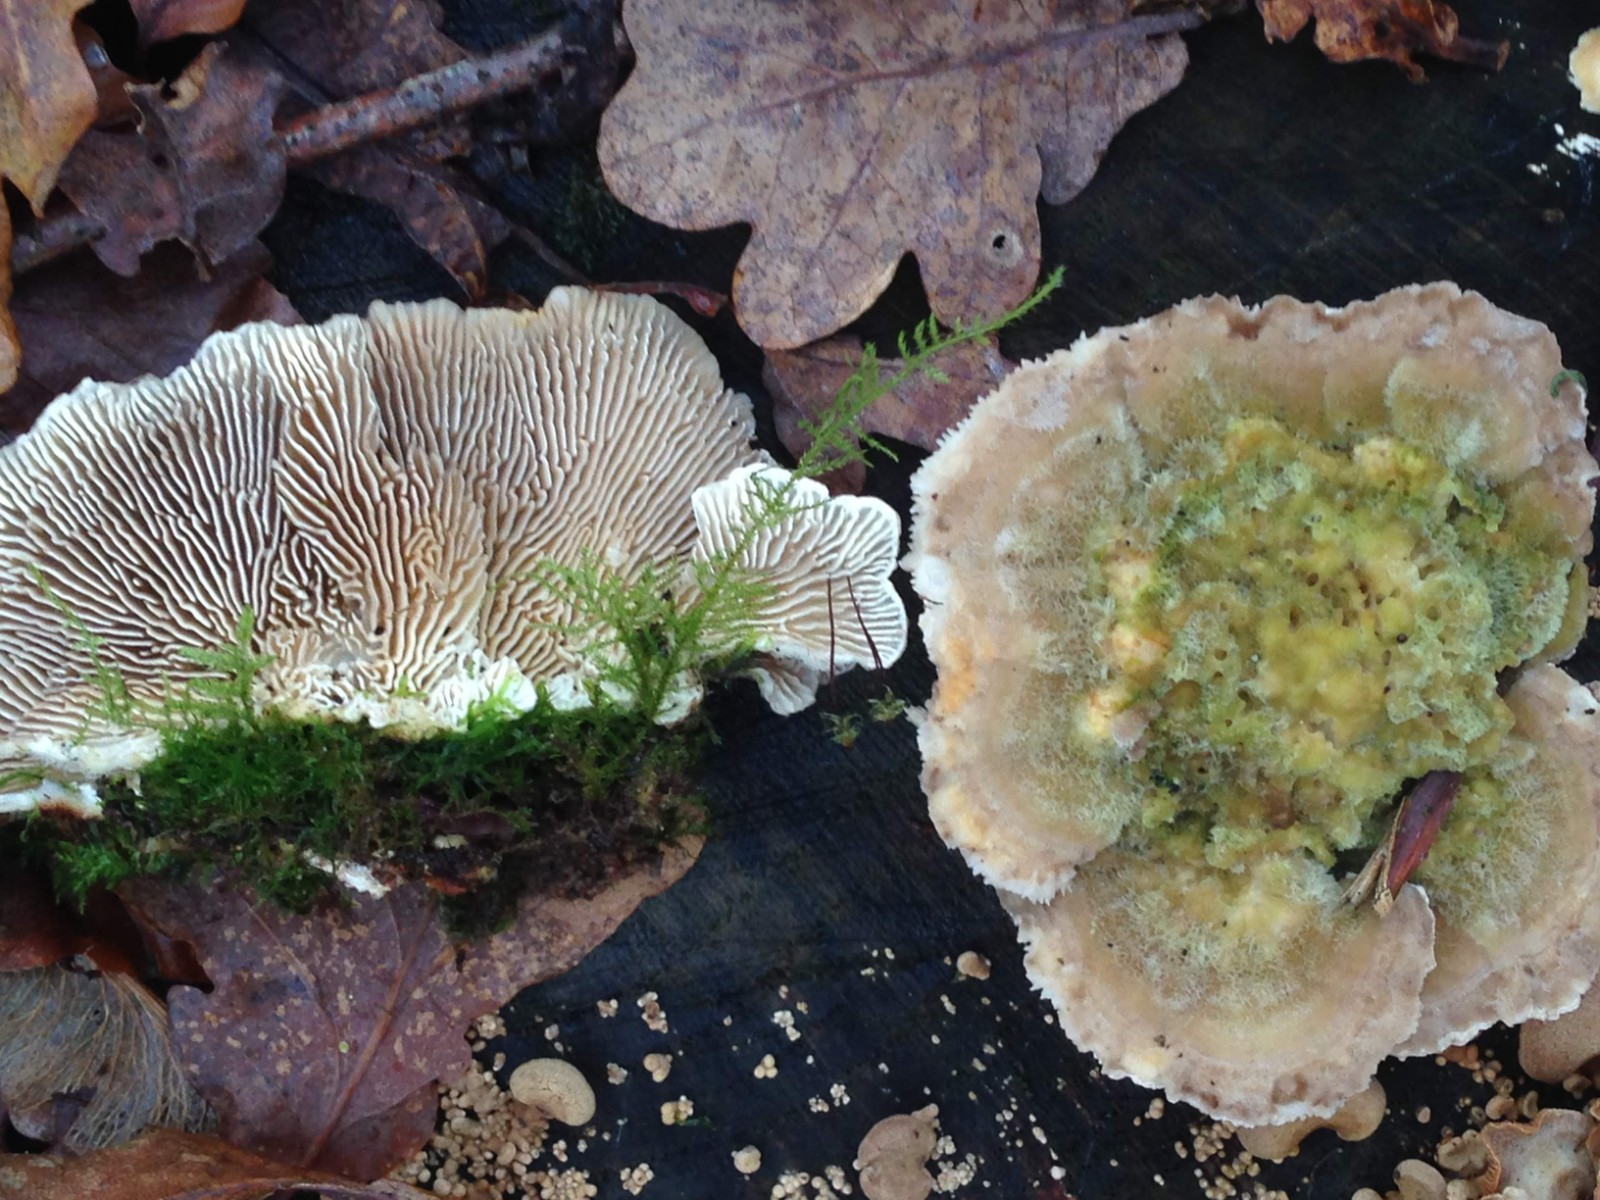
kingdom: Fungi
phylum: Basidiomycota
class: Agaricomycetes
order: Polyporales
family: Polyporaceae
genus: Lenzites
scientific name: Lenzites betulinus
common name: birke-læderporesvamp
